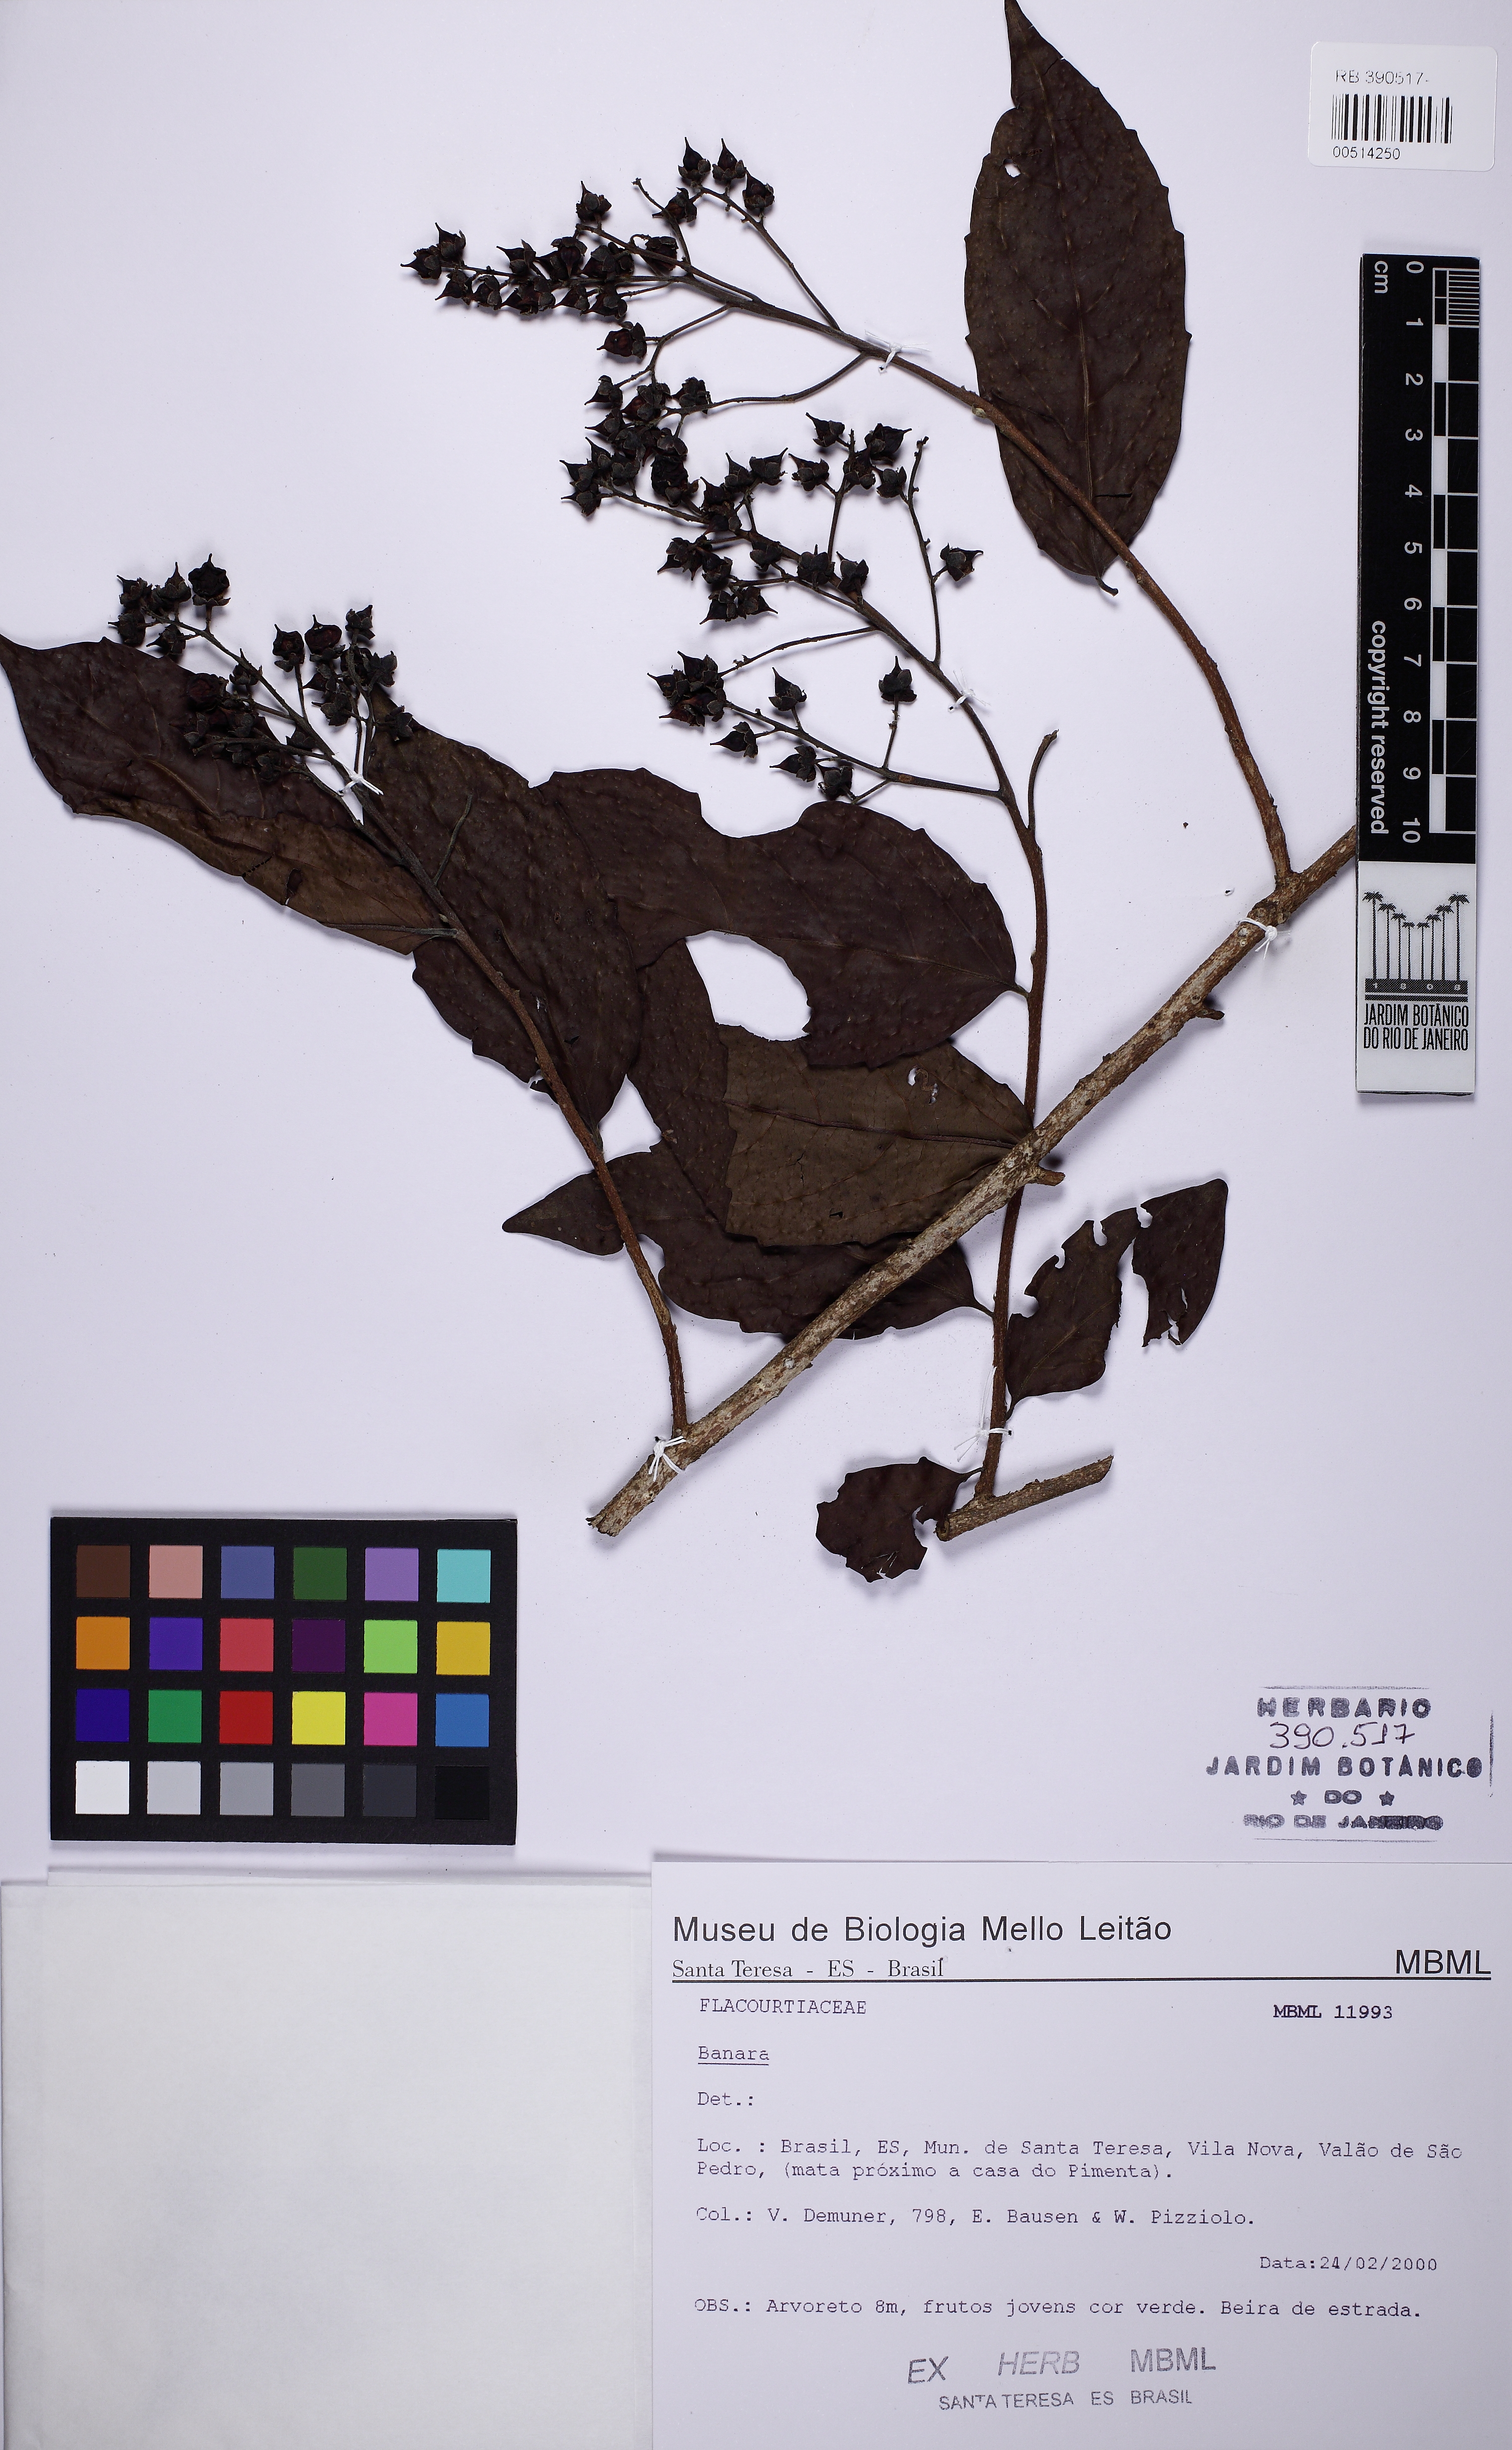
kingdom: Plantae
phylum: Tracheophyta
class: Magnoliopsida
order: Malpighiales
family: Salicaceae
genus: Banara
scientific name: Banara serrata
